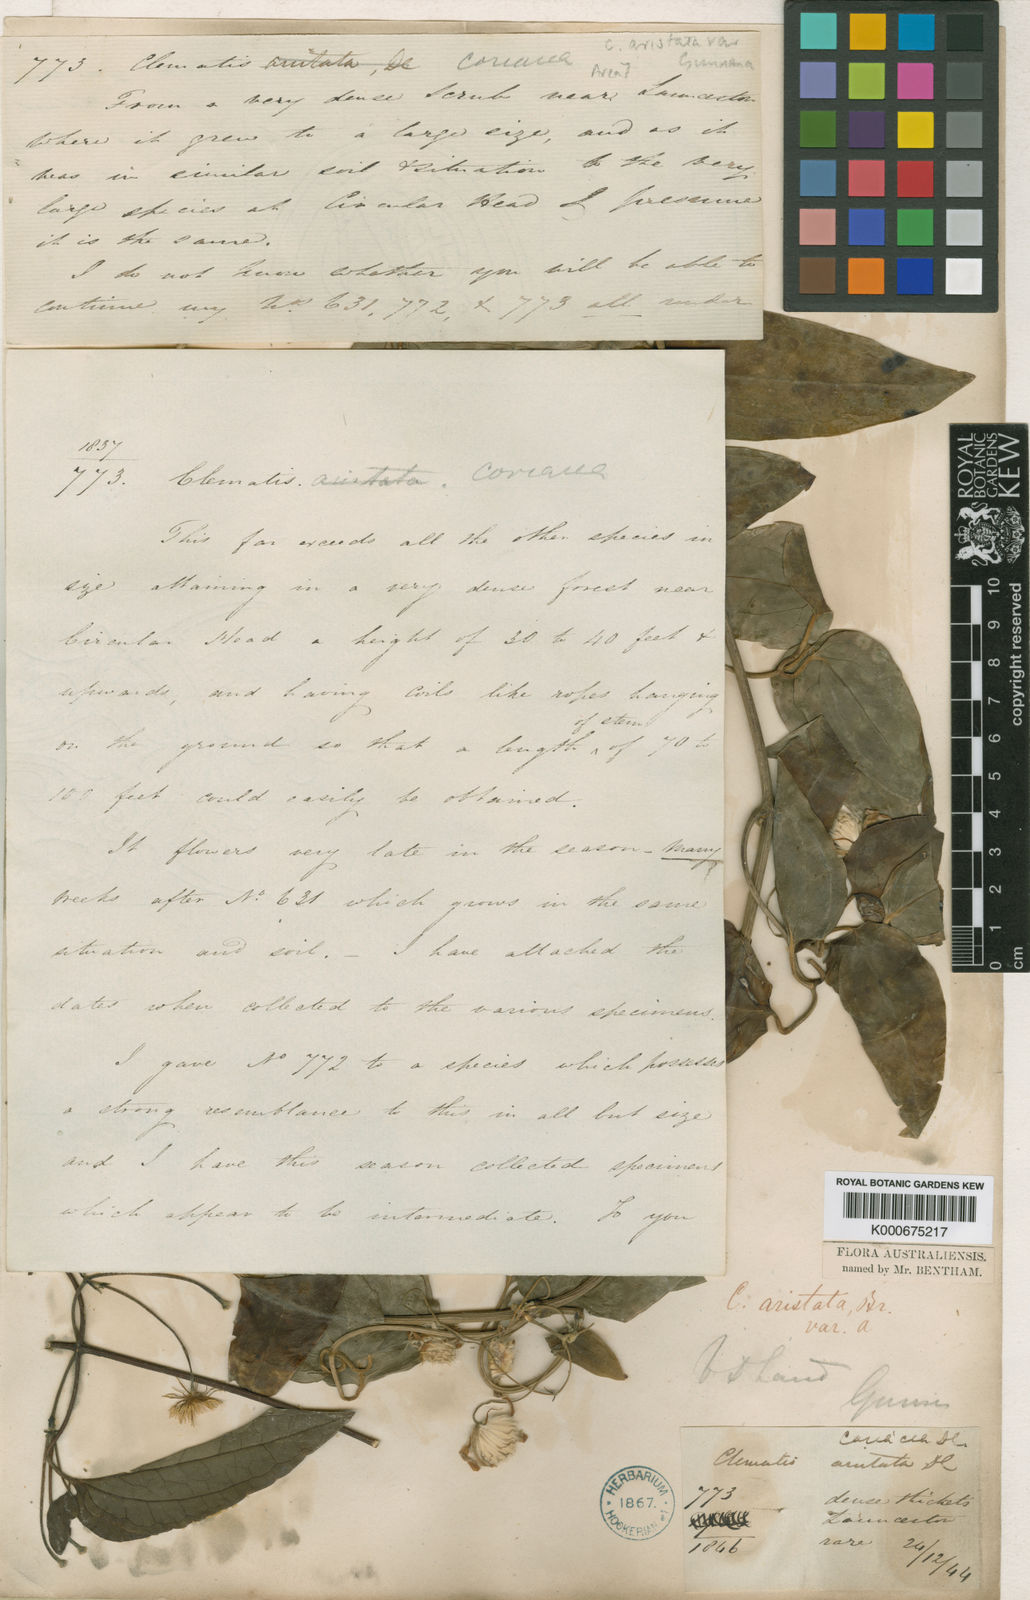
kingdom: Plantae
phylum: Tracheophyta
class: Magnoliopsida
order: Ranunculales
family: Ranunculaceae
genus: Clematis
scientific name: Clematis clitorioides
